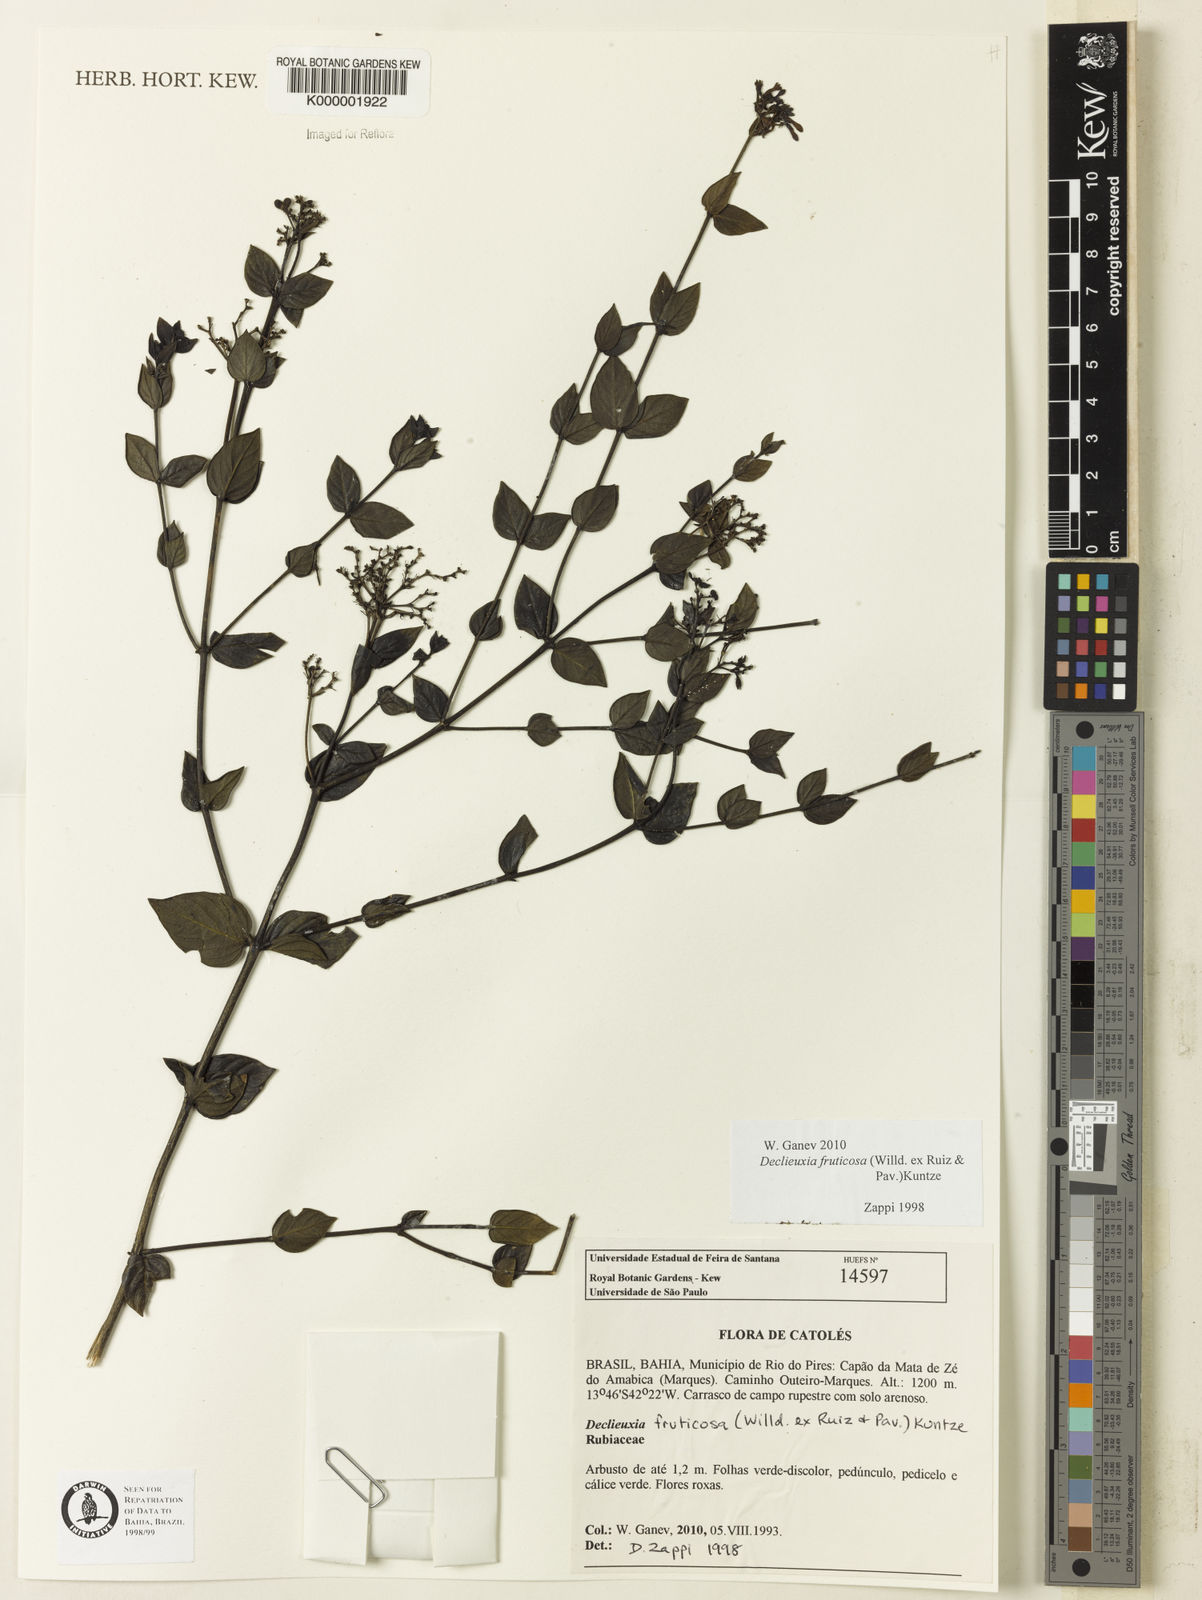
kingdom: Plantae
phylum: Tracheophyta
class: Magnoliopsida
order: Gentianales
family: Rubiaceae
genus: Declieuxia
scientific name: Declieuxia fruticosa
